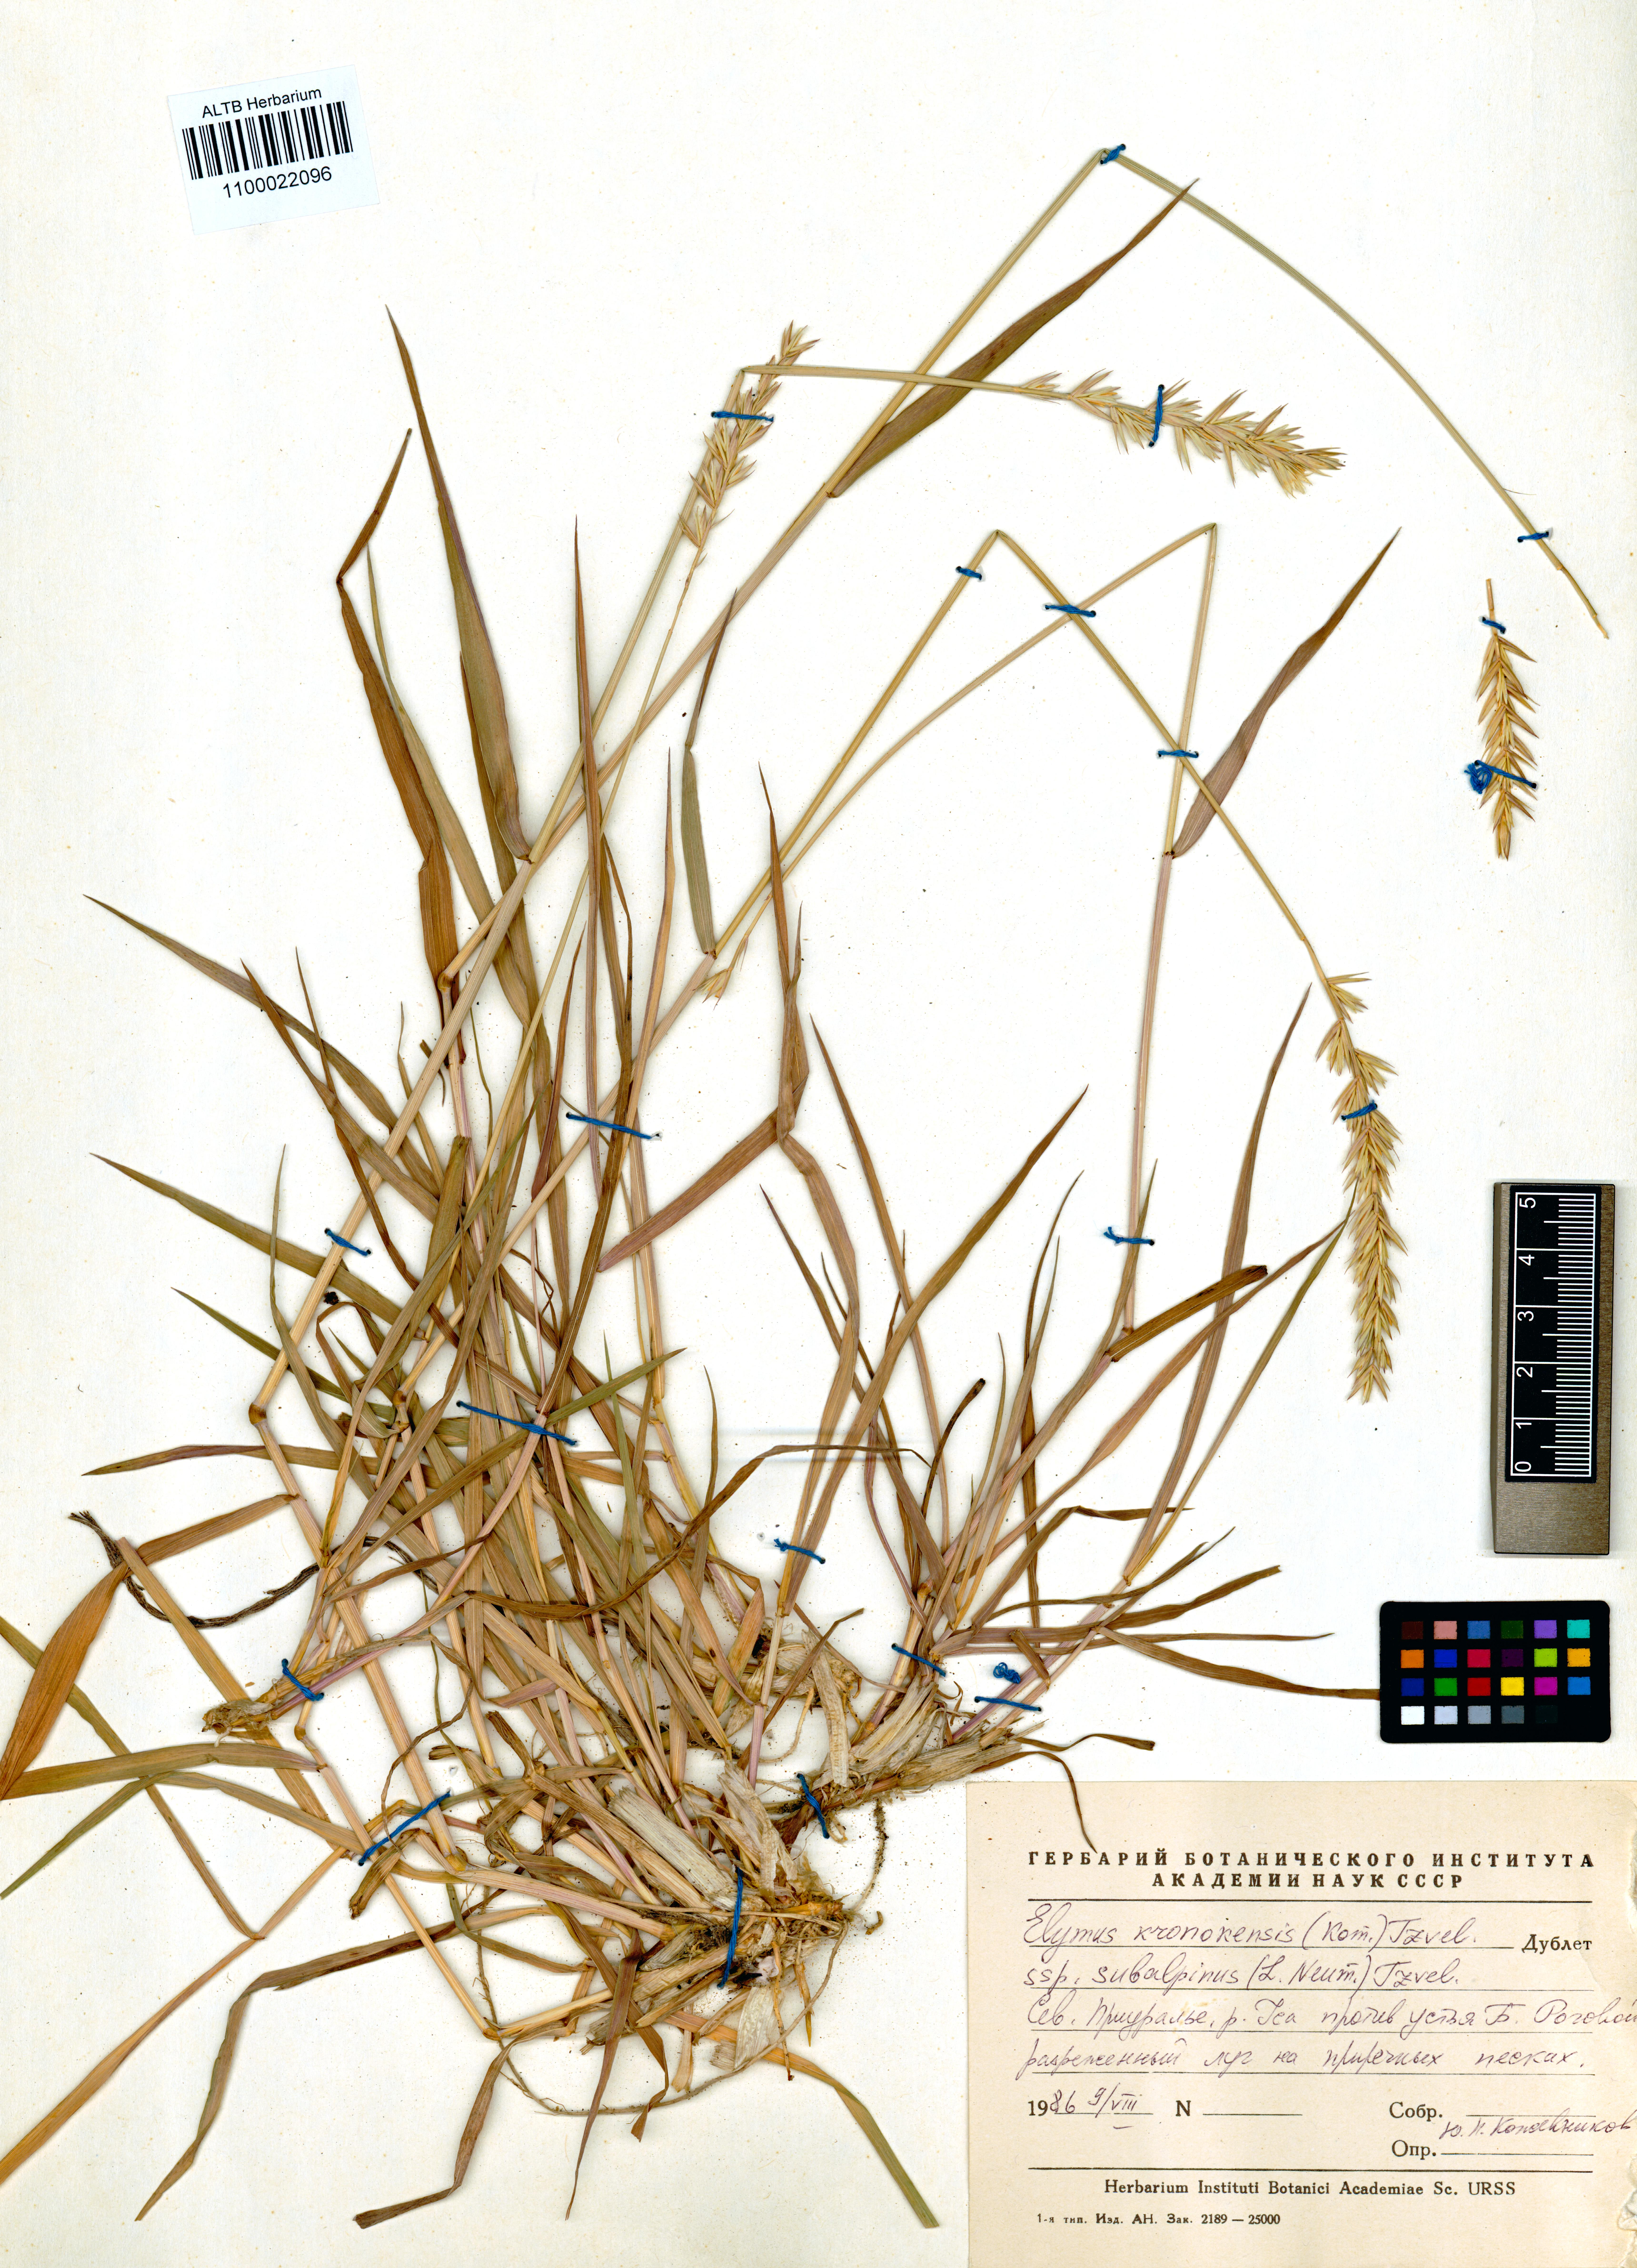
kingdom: Plantae
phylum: Tracheophyta
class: Liliopsida
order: Poales
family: Poaceae
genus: Elymus
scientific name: Elymus macrourus
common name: Northern wheatgrass
